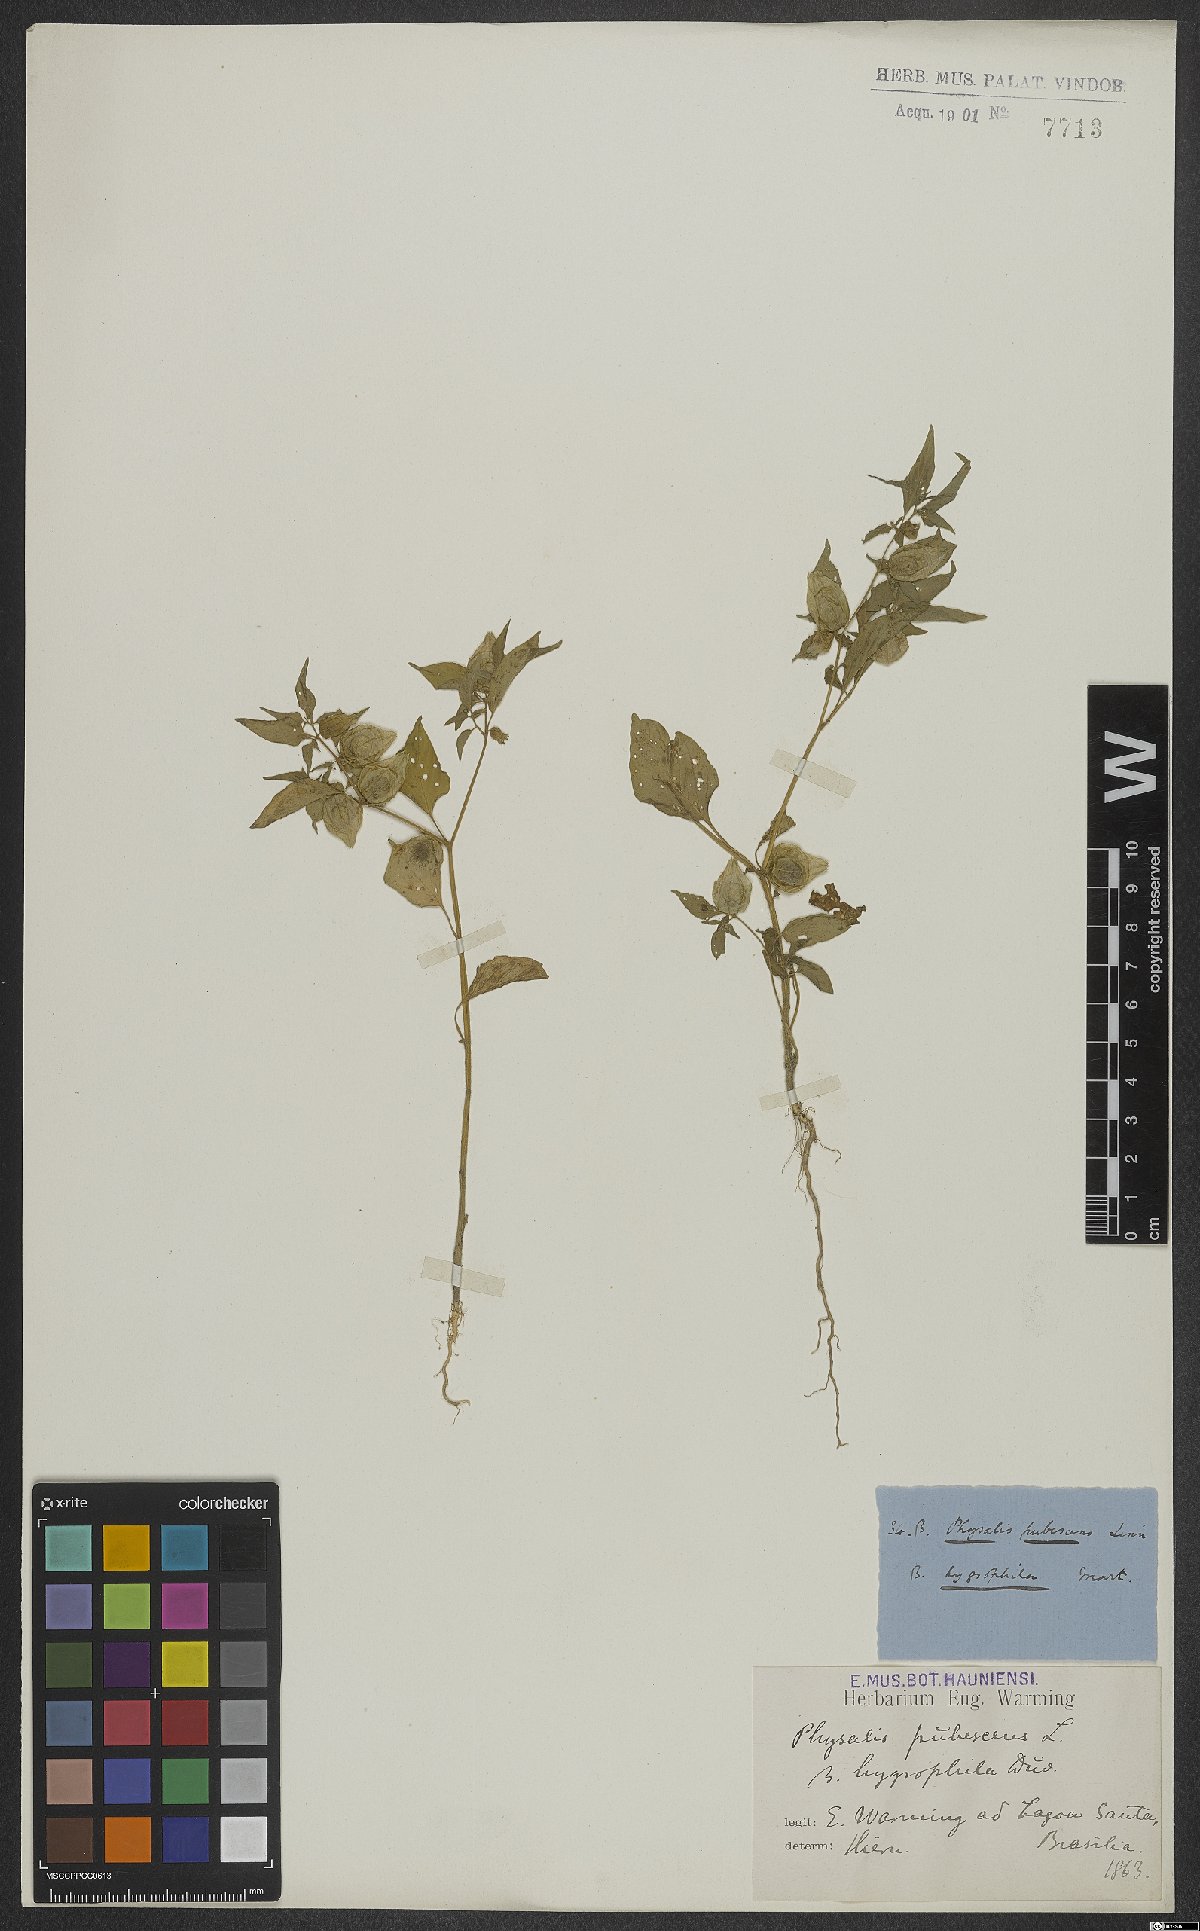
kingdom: Plantae
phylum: Tracheophyta
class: Magnoliopsida
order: Solanales
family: Solanaceae
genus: Physalis
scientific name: Physalis pubescens
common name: Downy ground-cherry
